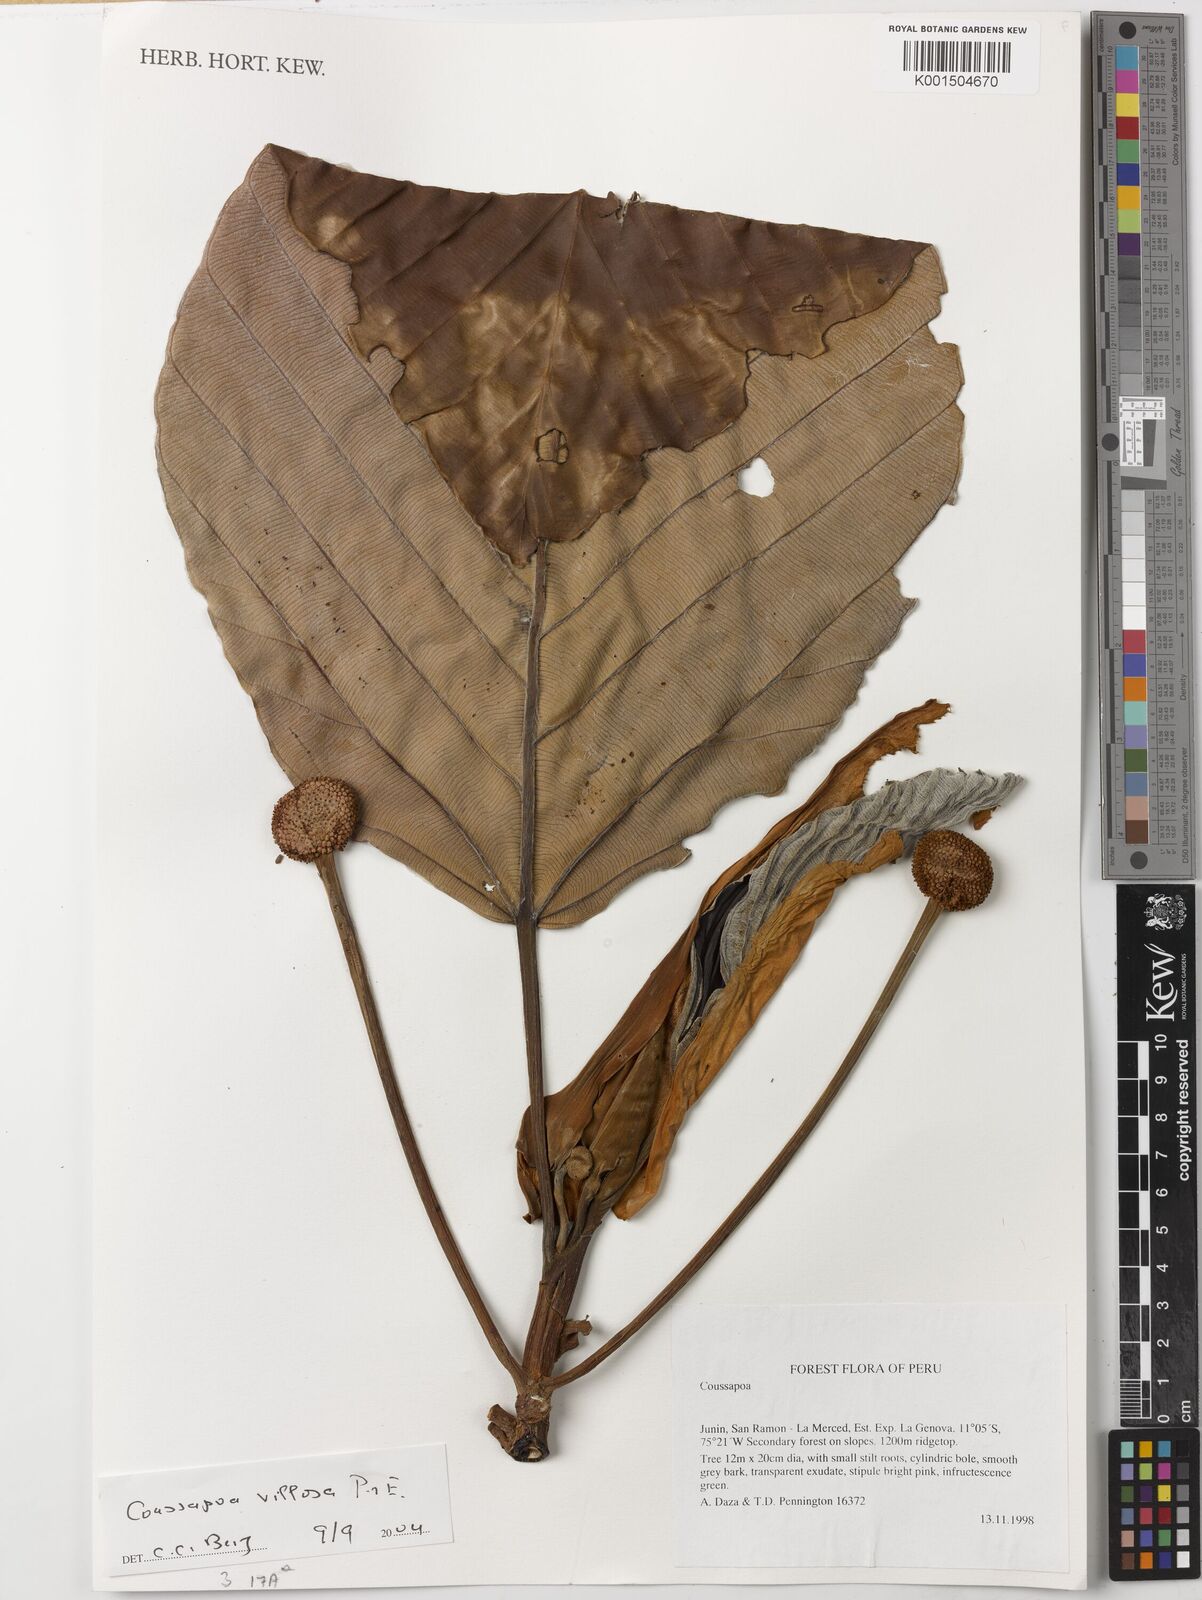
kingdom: Plantae
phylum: Tracheophyta
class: Magnoliopsida
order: Rosales
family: Urticaceae
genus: Coussapoa
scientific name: Coussapoa villosa
